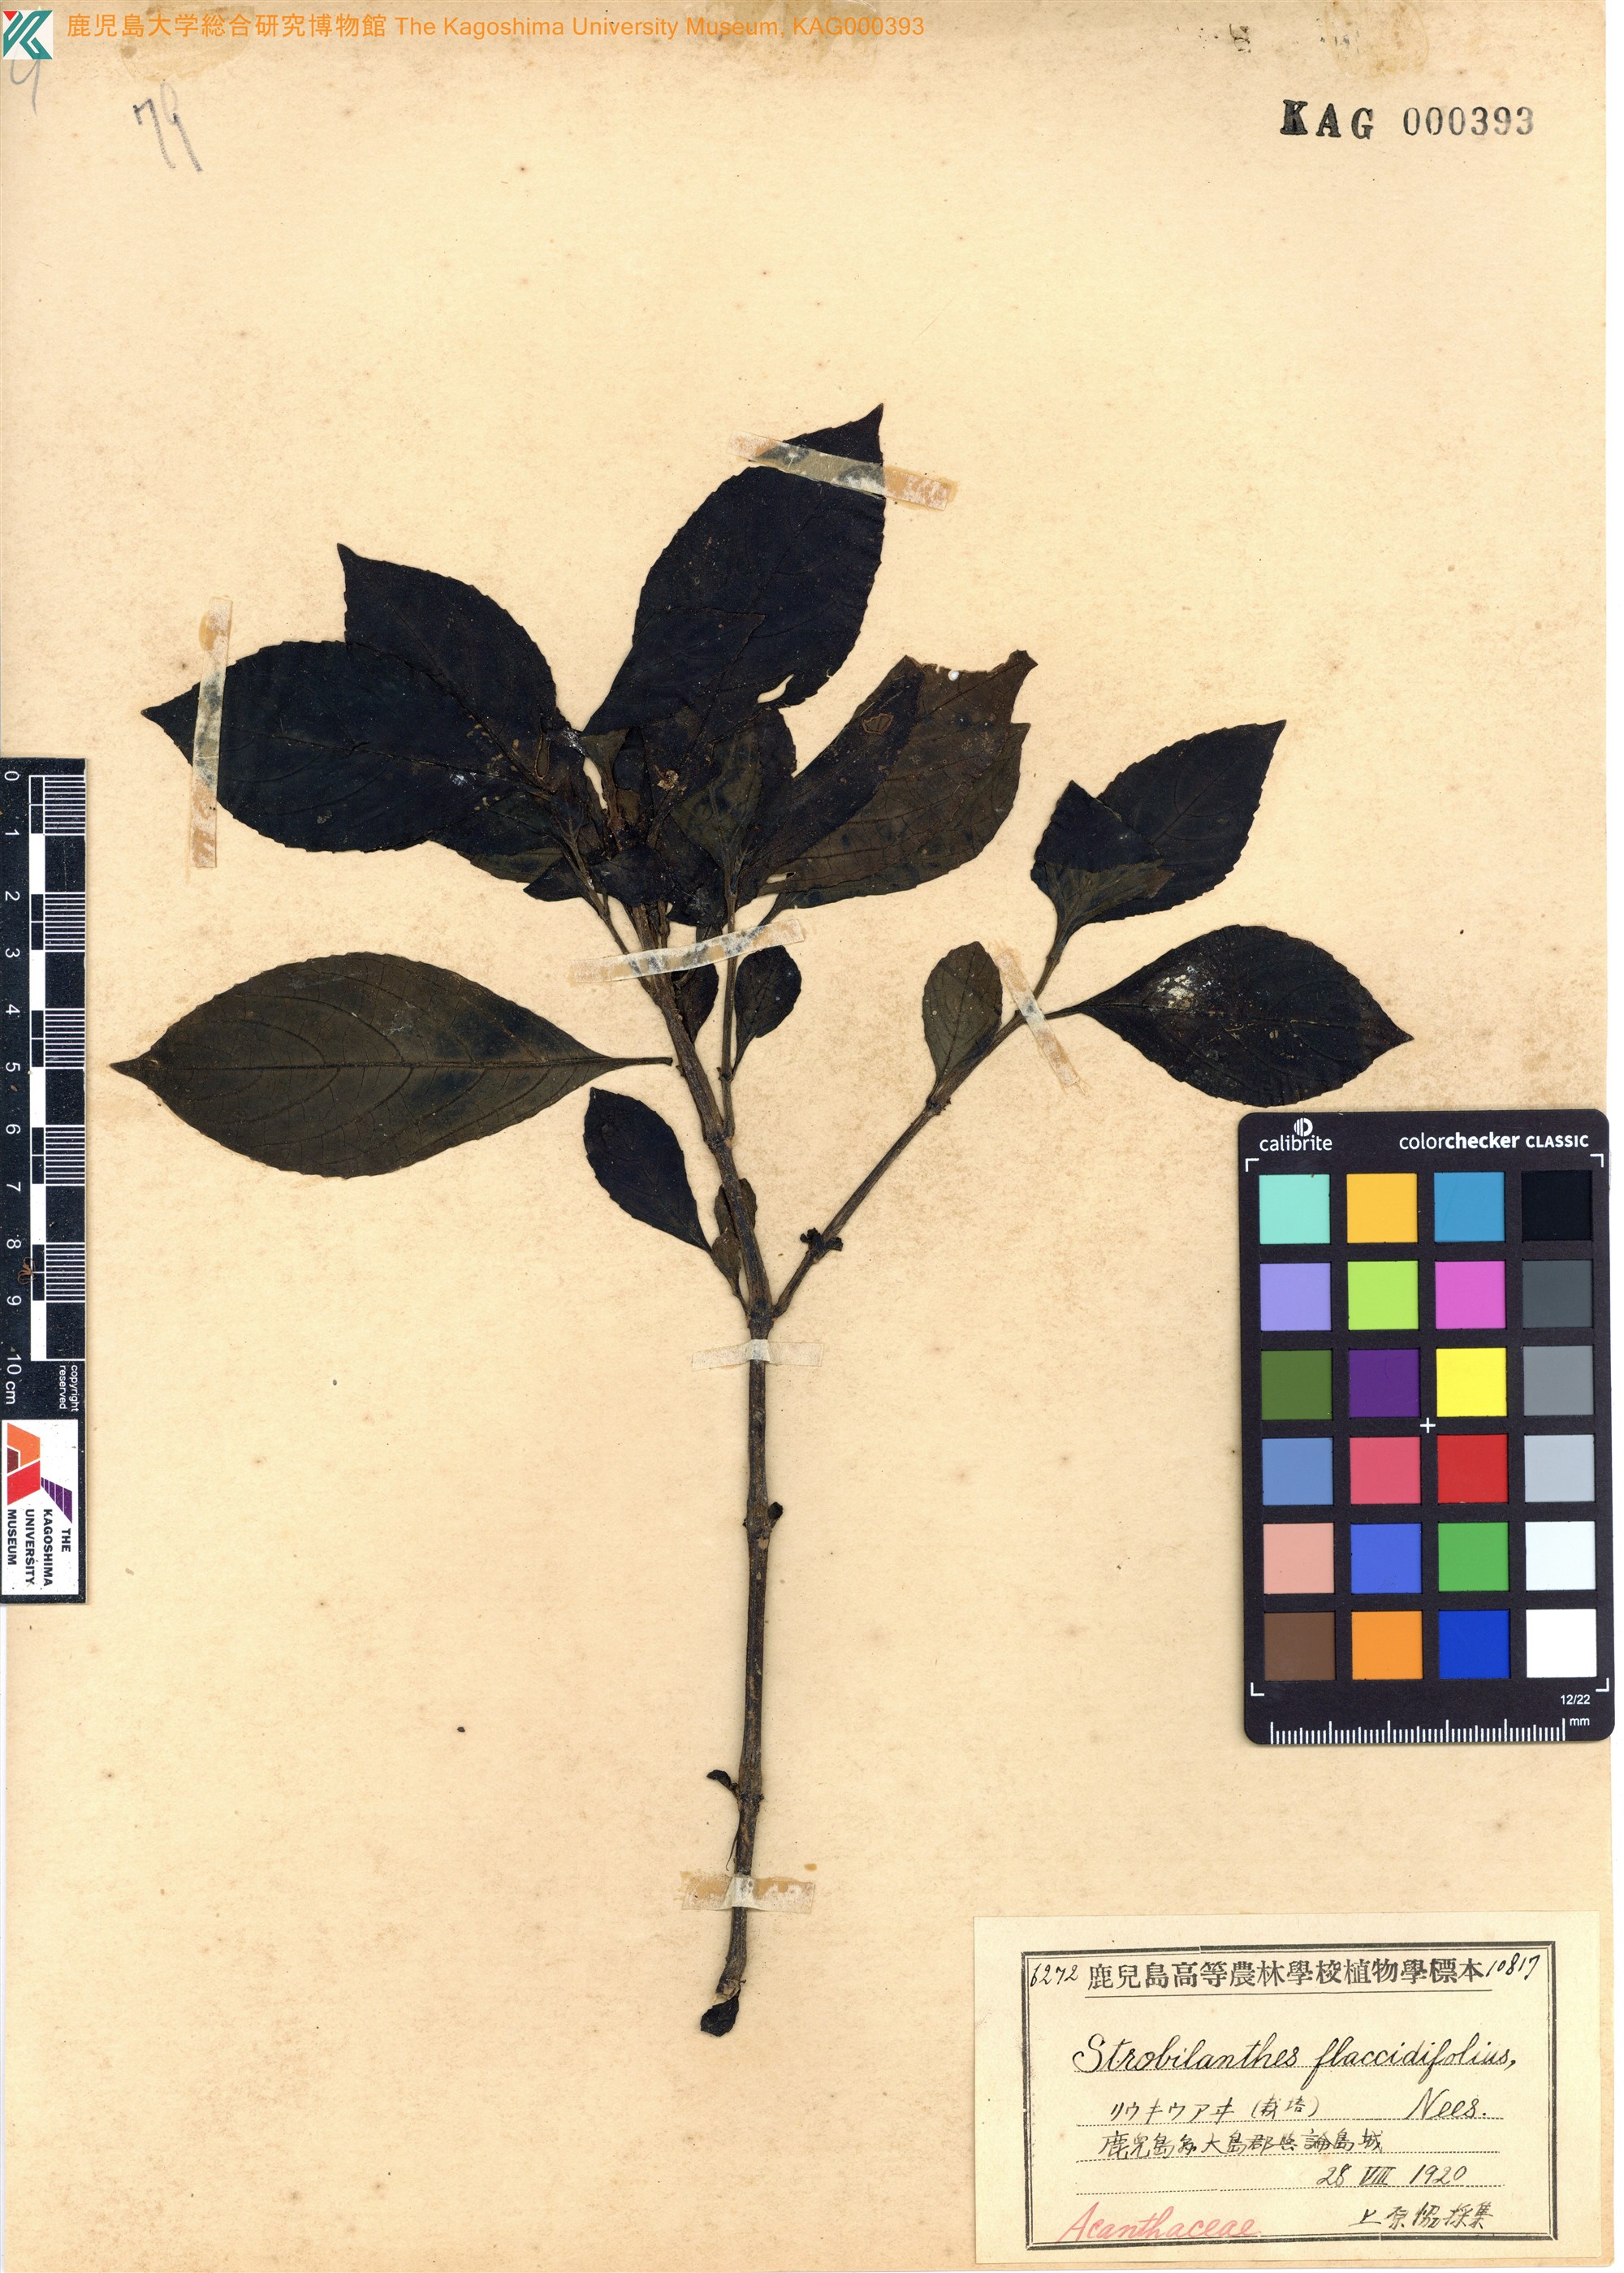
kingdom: Plantae
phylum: Tracheophyta
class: Magnoliopsida
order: Lamiales
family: Acanthaceae
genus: Strobilanthes
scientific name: Strobilanthes cusia
